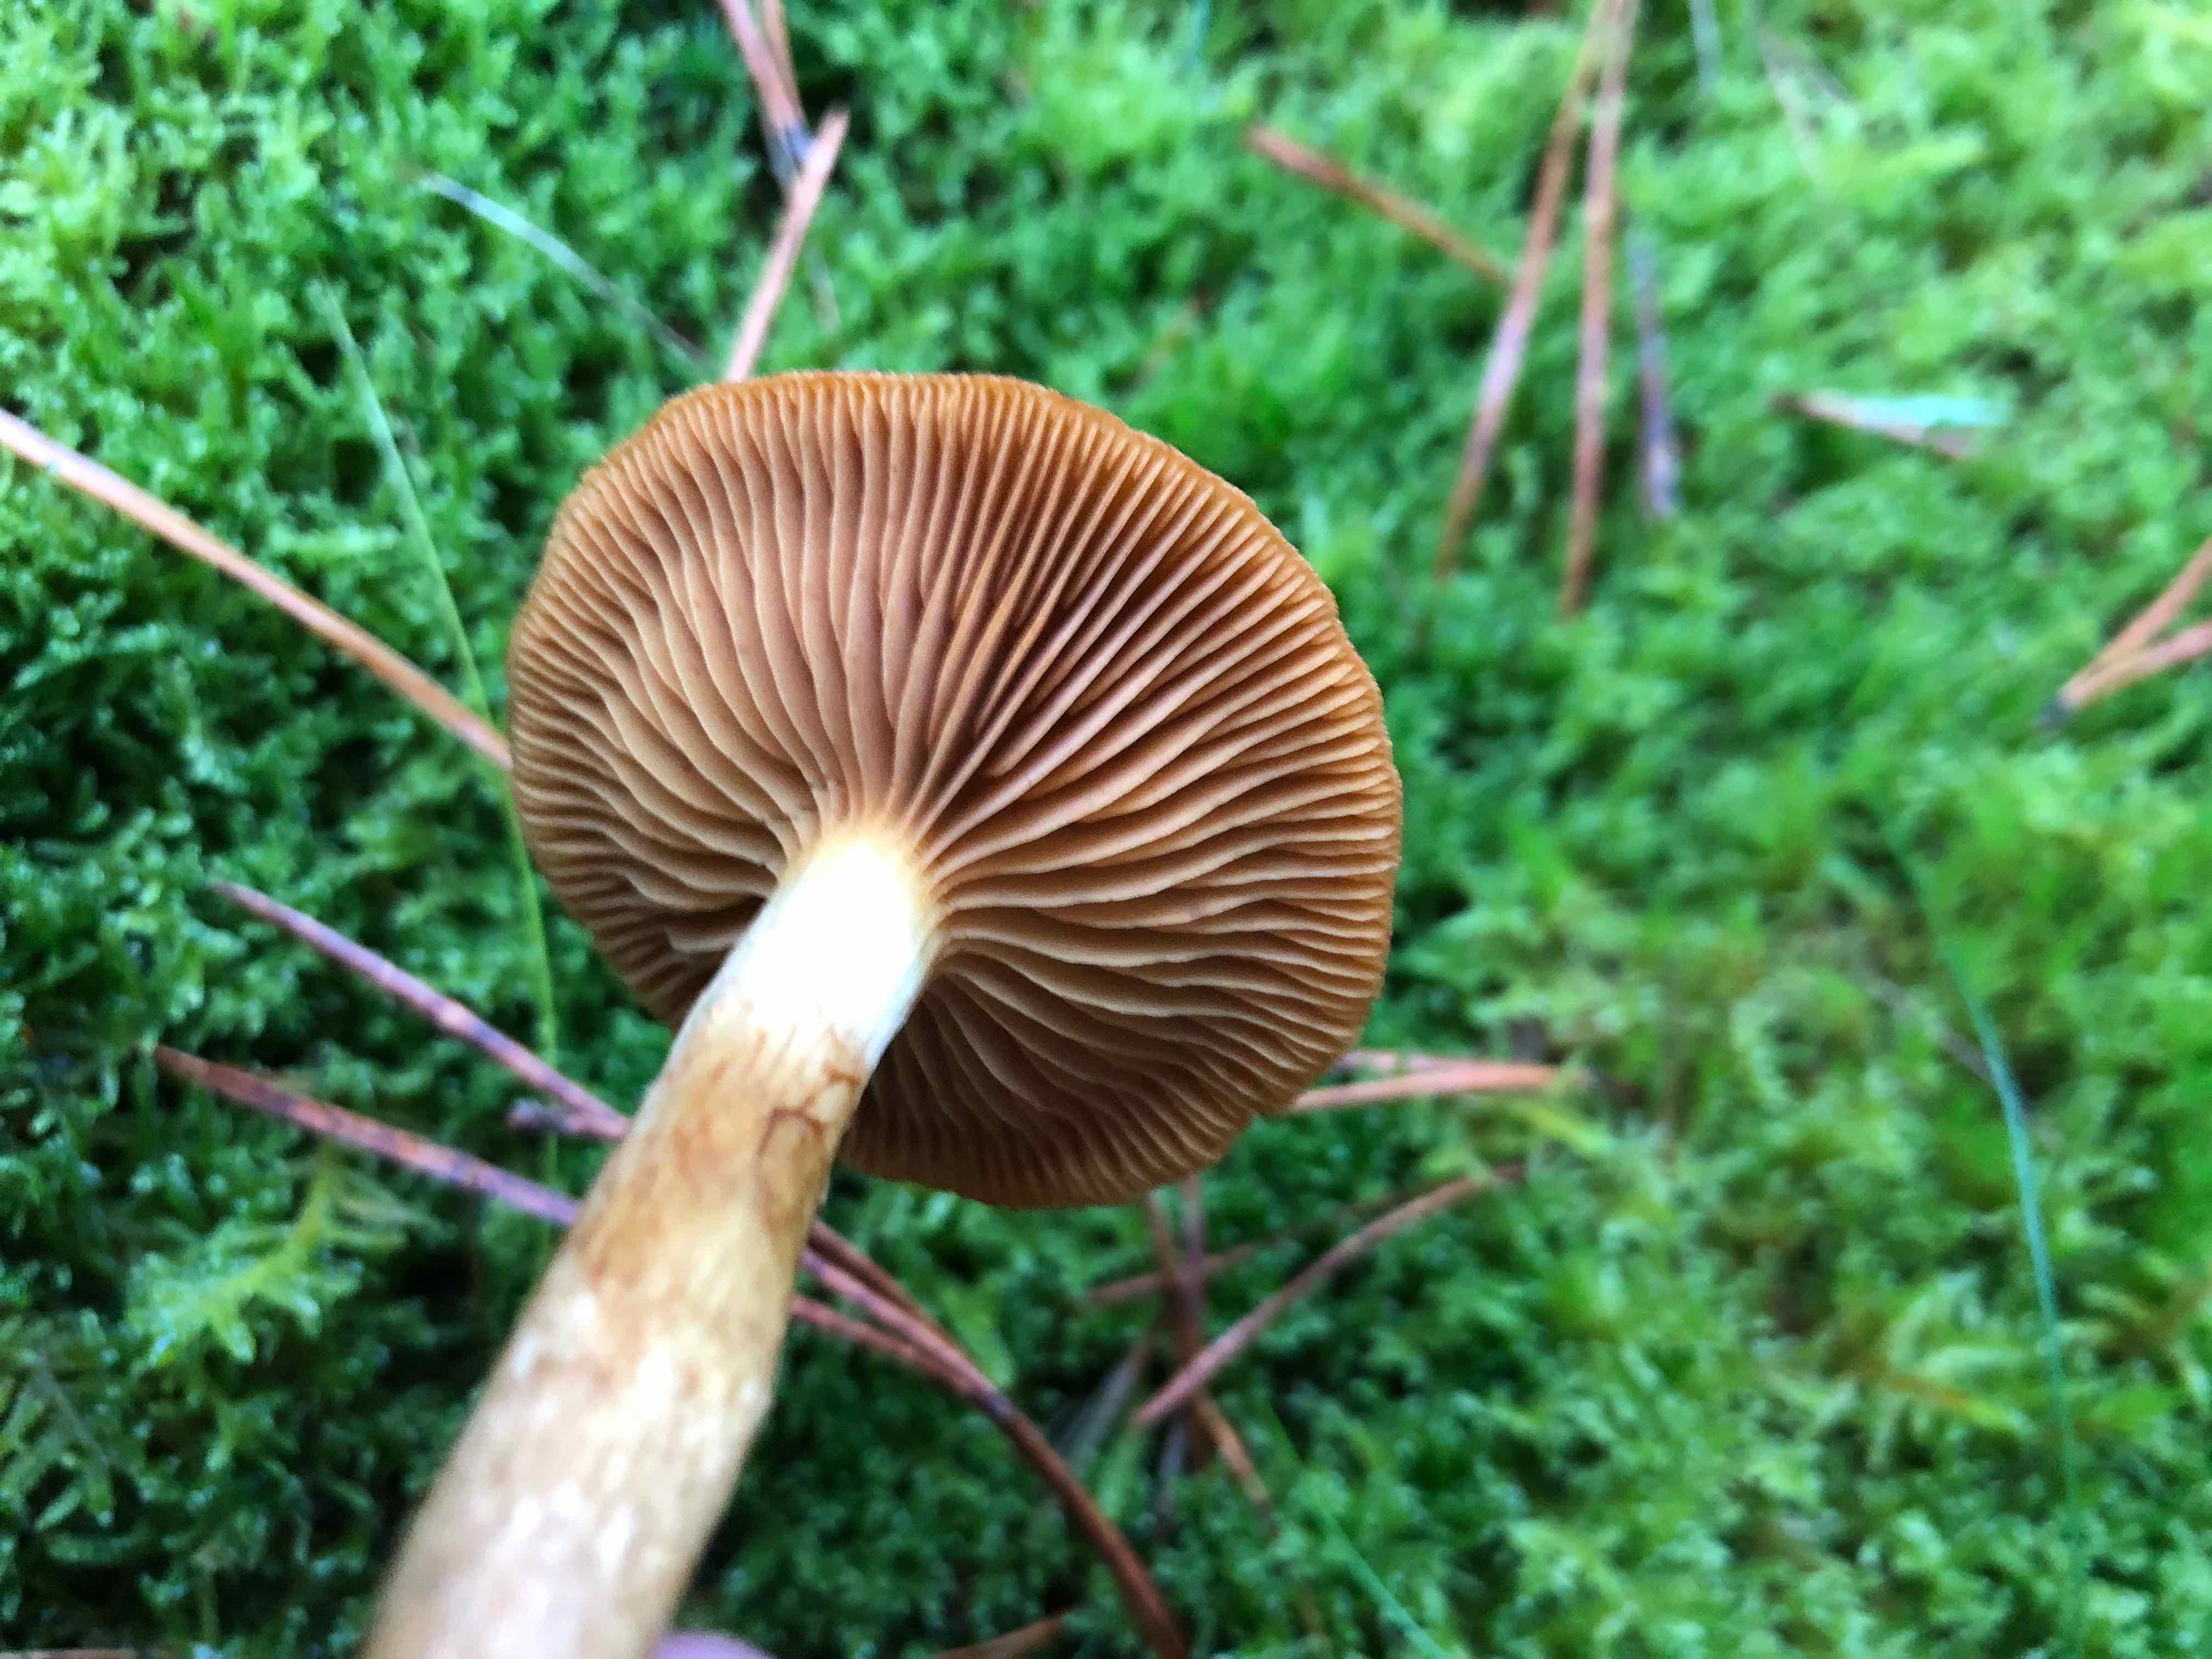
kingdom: Fungi
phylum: Basidiomycota
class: Agaricomycetes
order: Agaricales
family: Cortinariaceae
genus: Cortinarius
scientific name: Cortinarius
